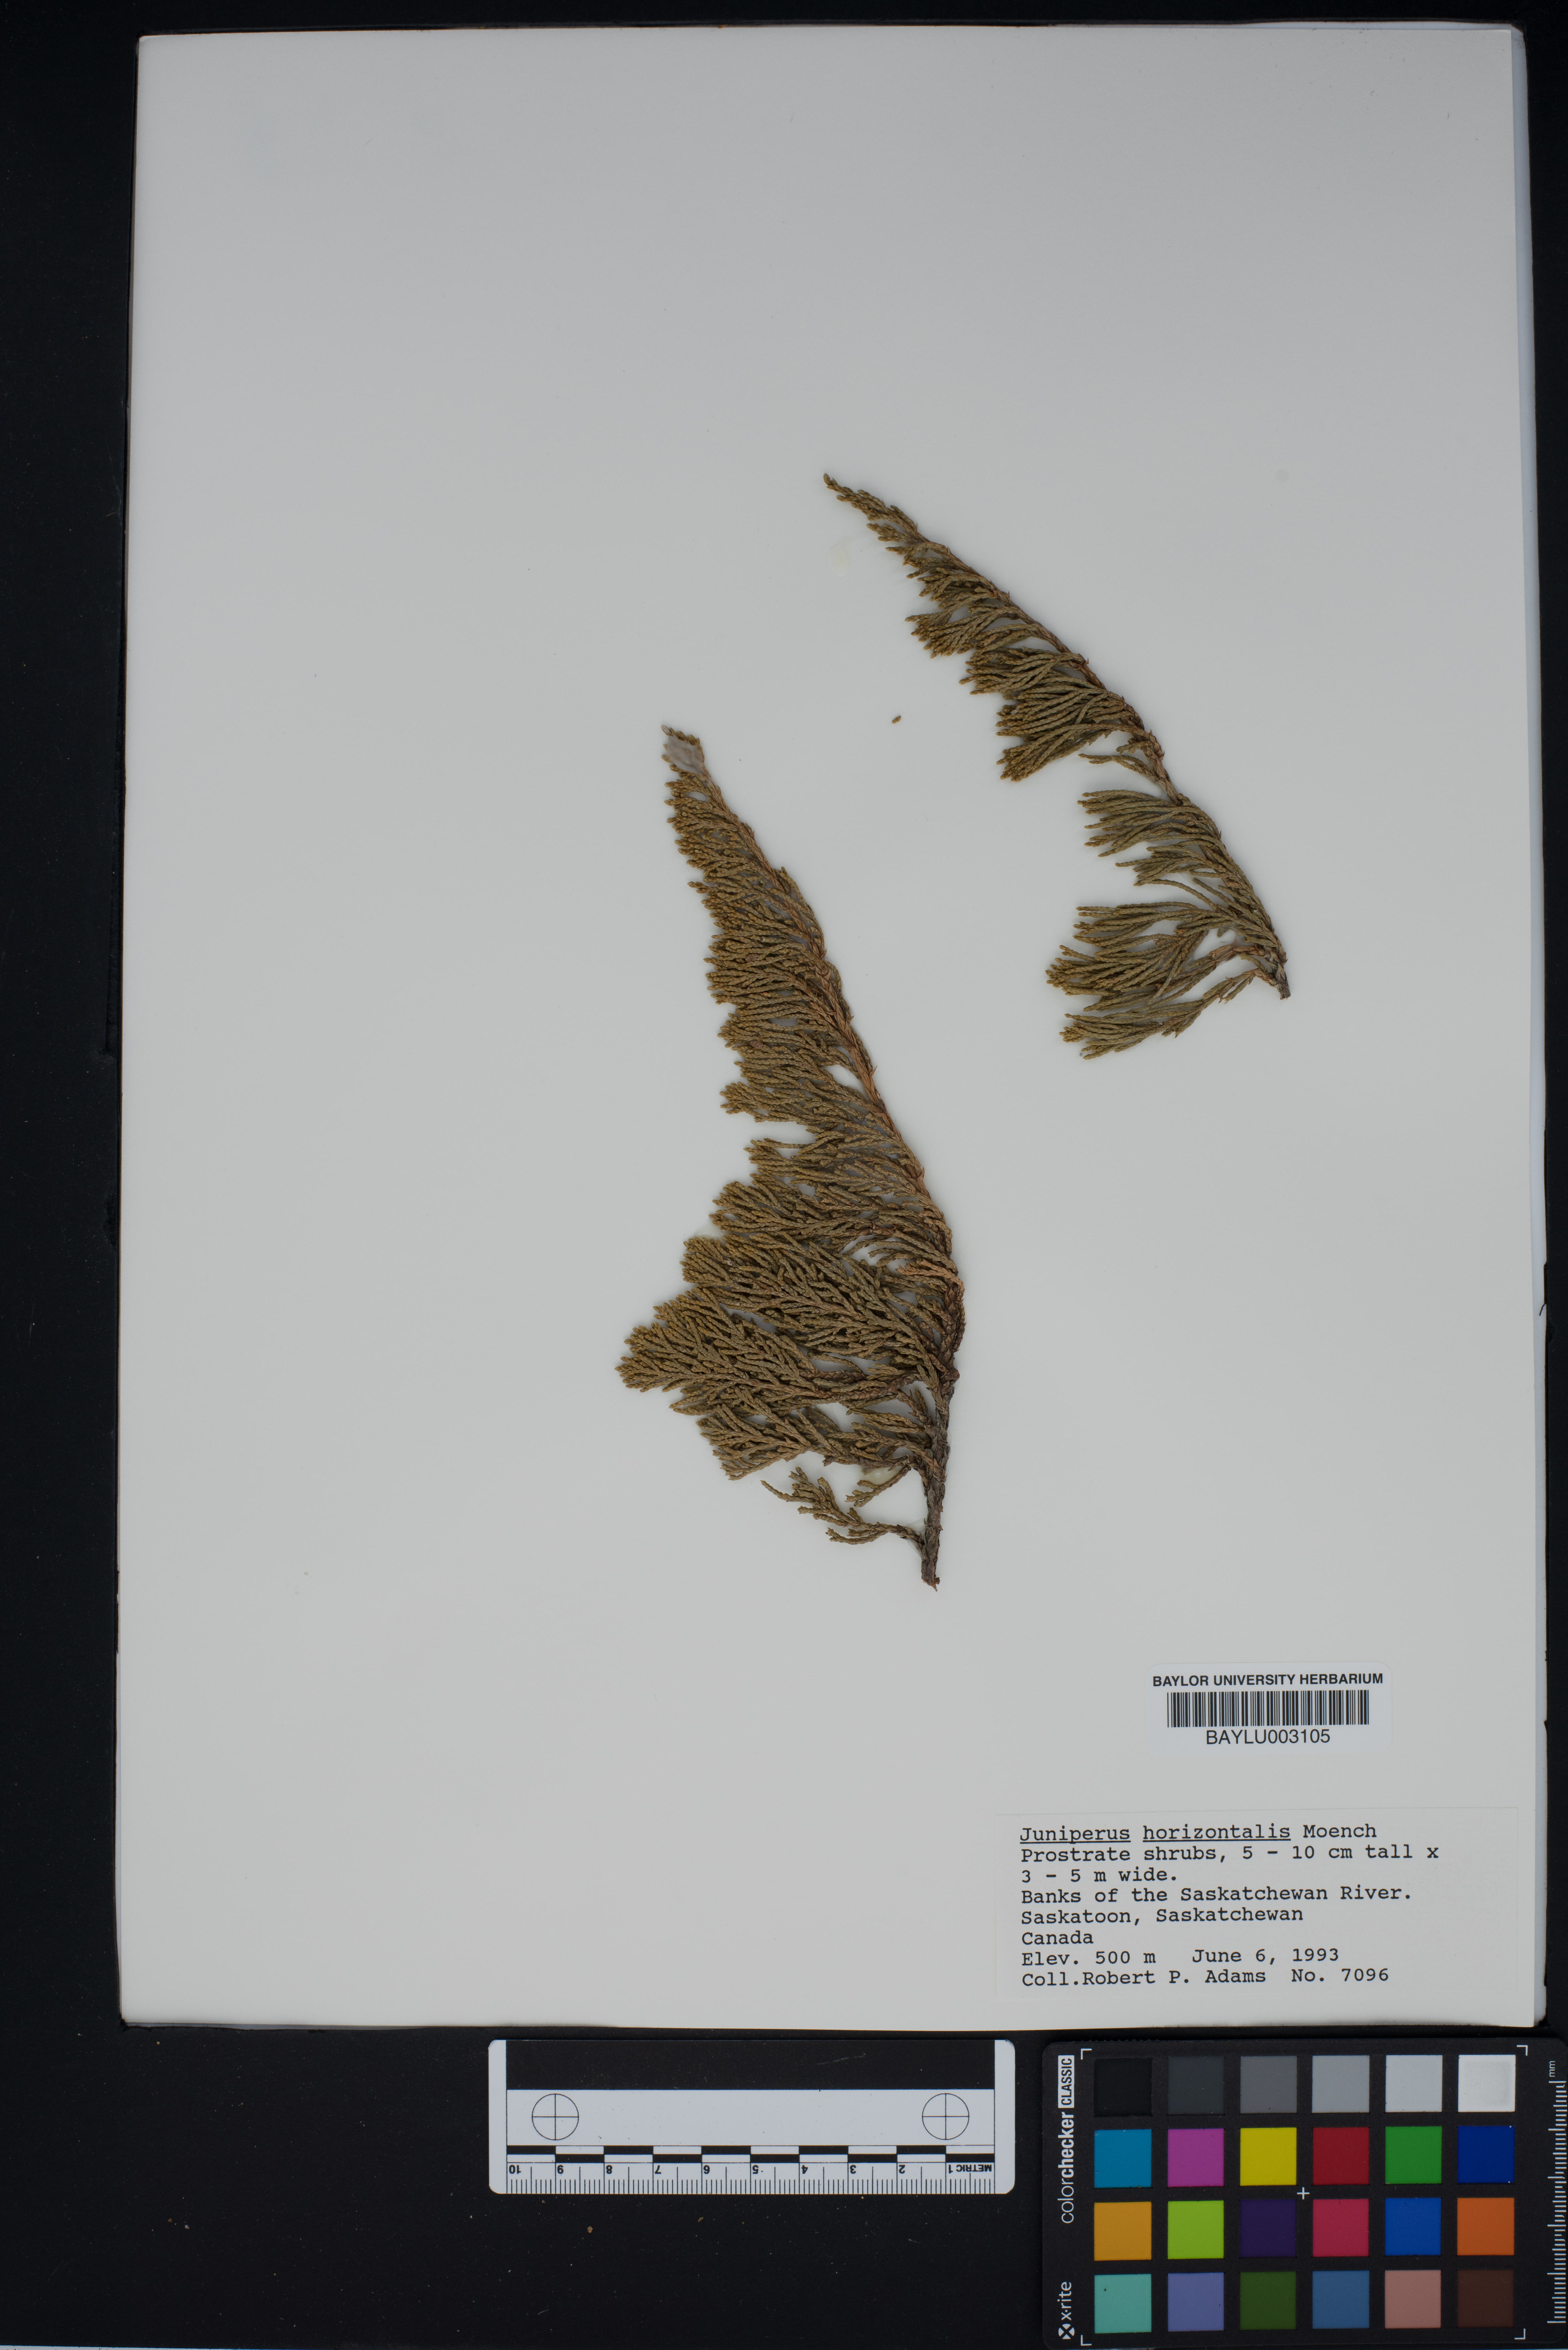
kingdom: Plantae
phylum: Tracheophyta
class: Pinopsida
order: Pinales
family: Cupressaceae
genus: Juniperus
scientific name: Juniperus horizontalis
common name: Creeping juniper
